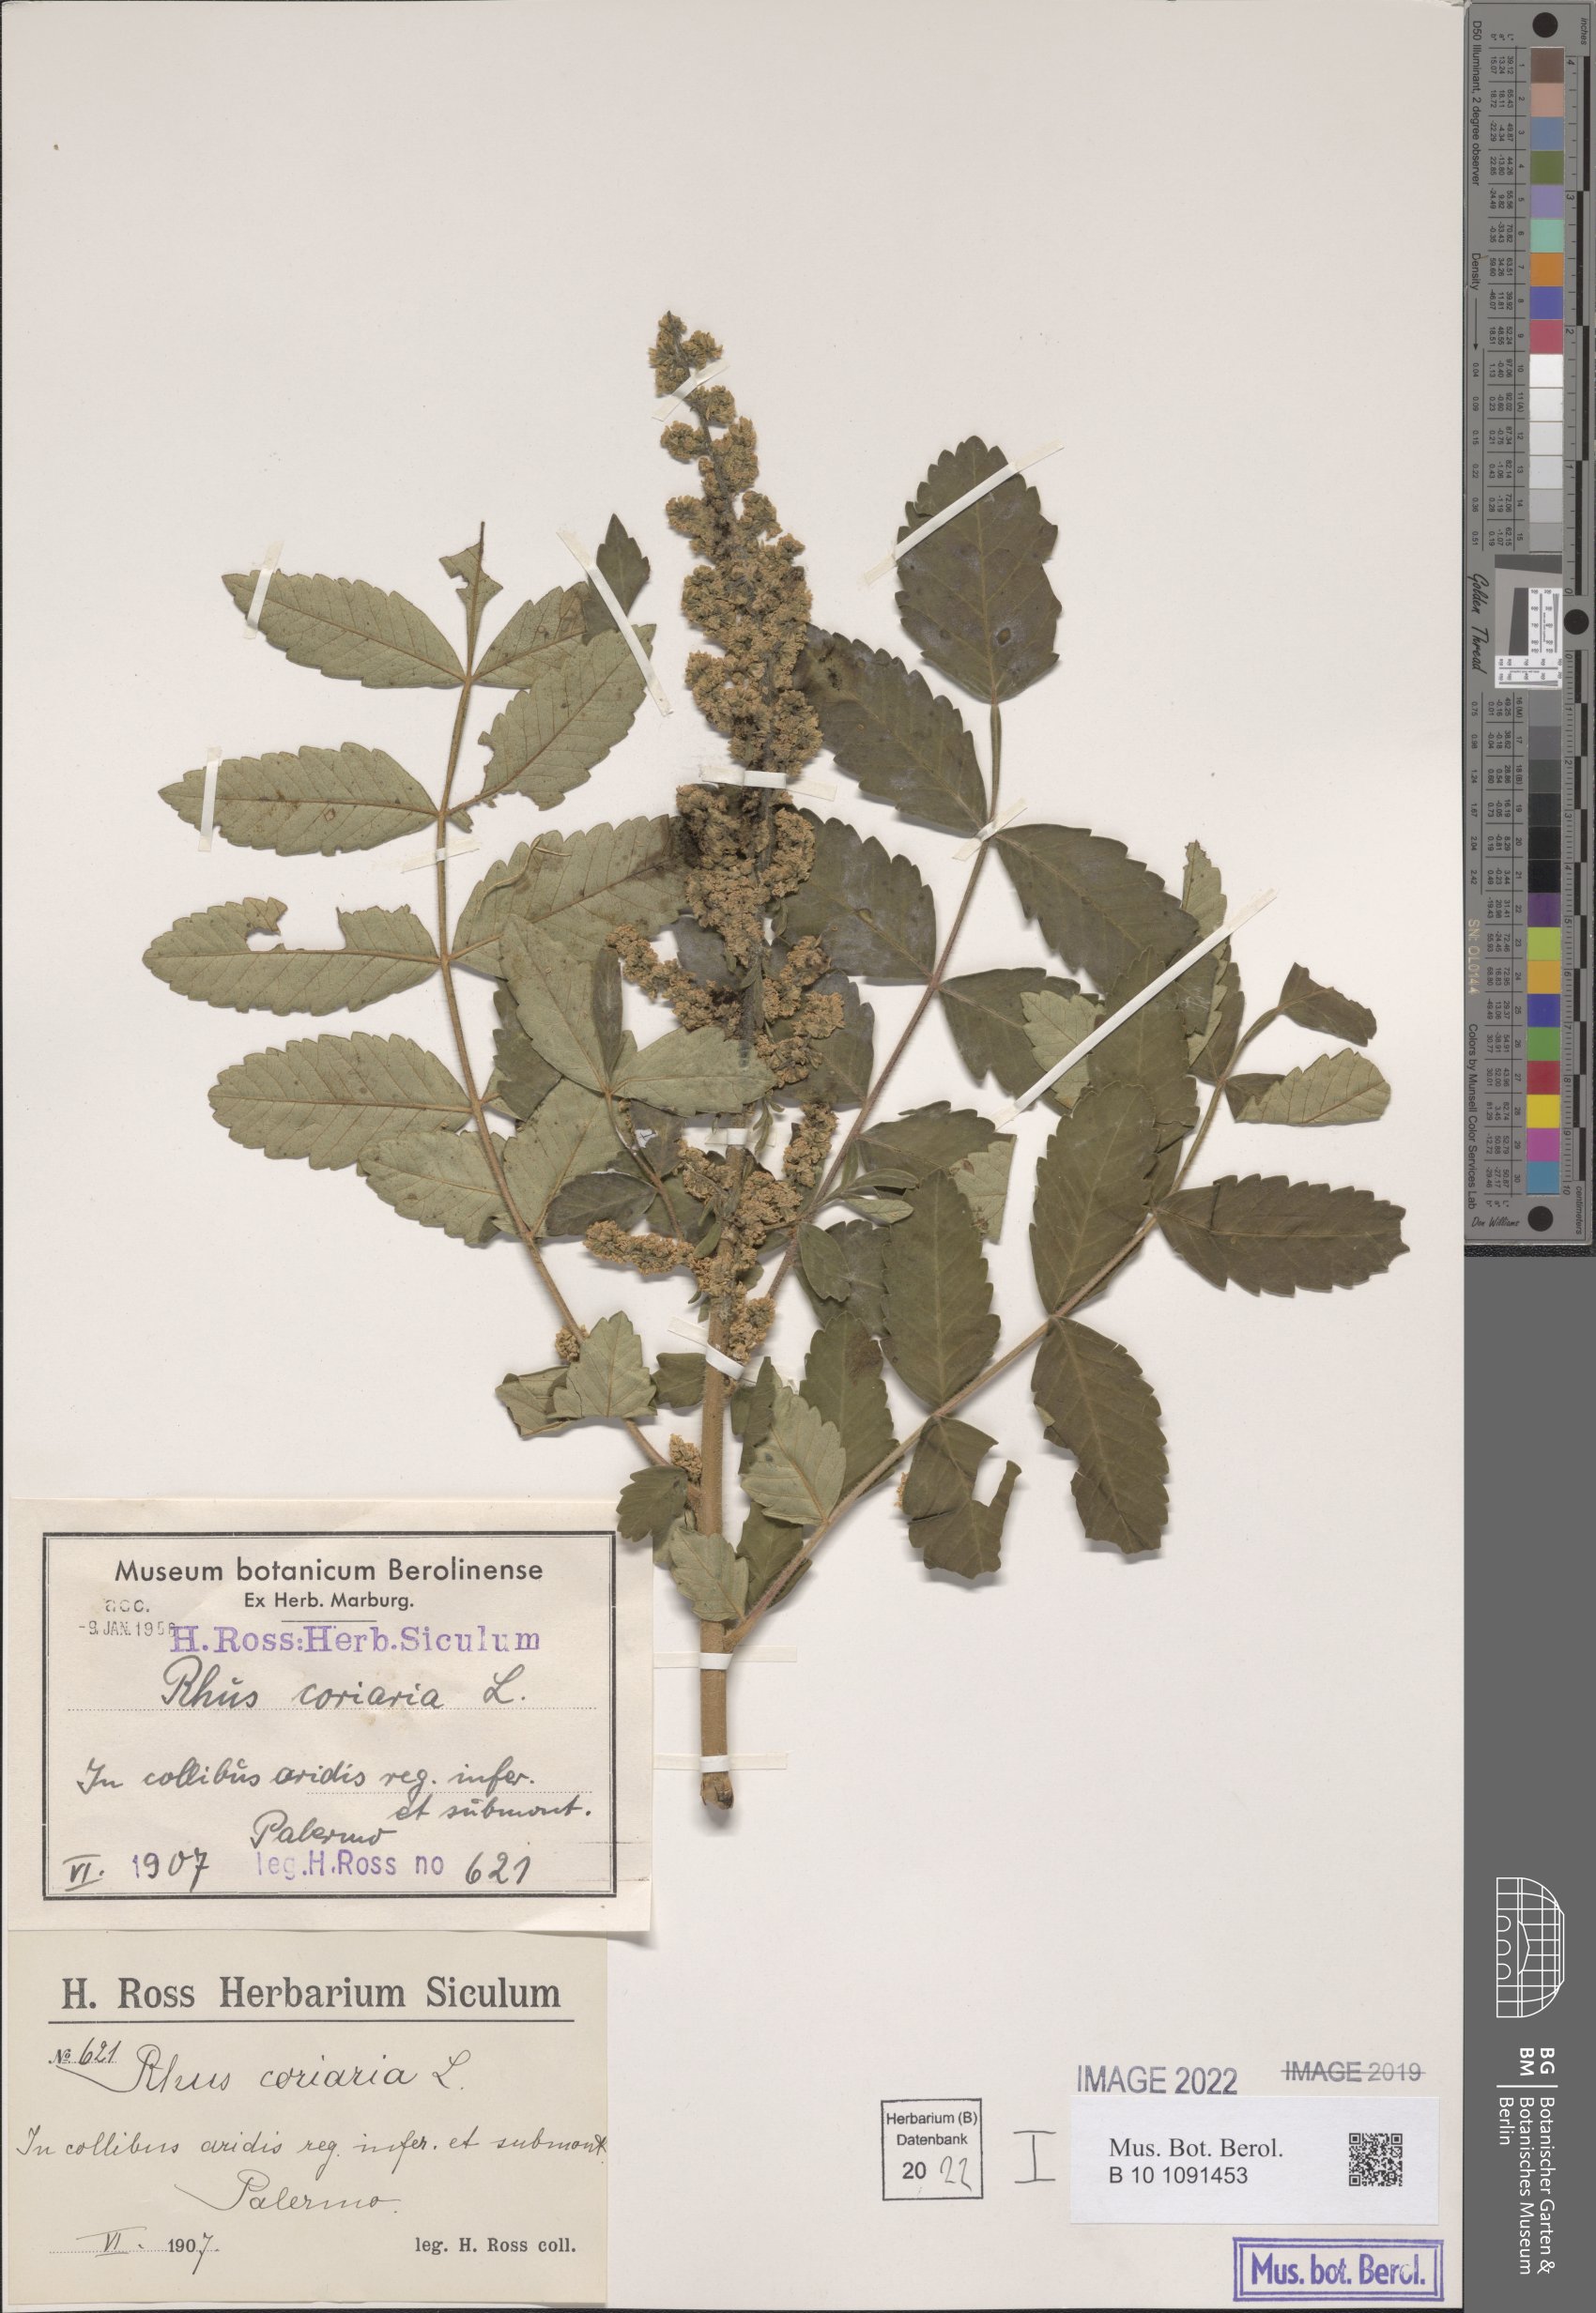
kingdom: Plantae
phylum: Tracheophyta
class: Magnoliopsida
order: Sapindales
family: Anacardiaceae
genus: Rhus
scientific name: Rhus coriaria
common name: Tanner's sumach
